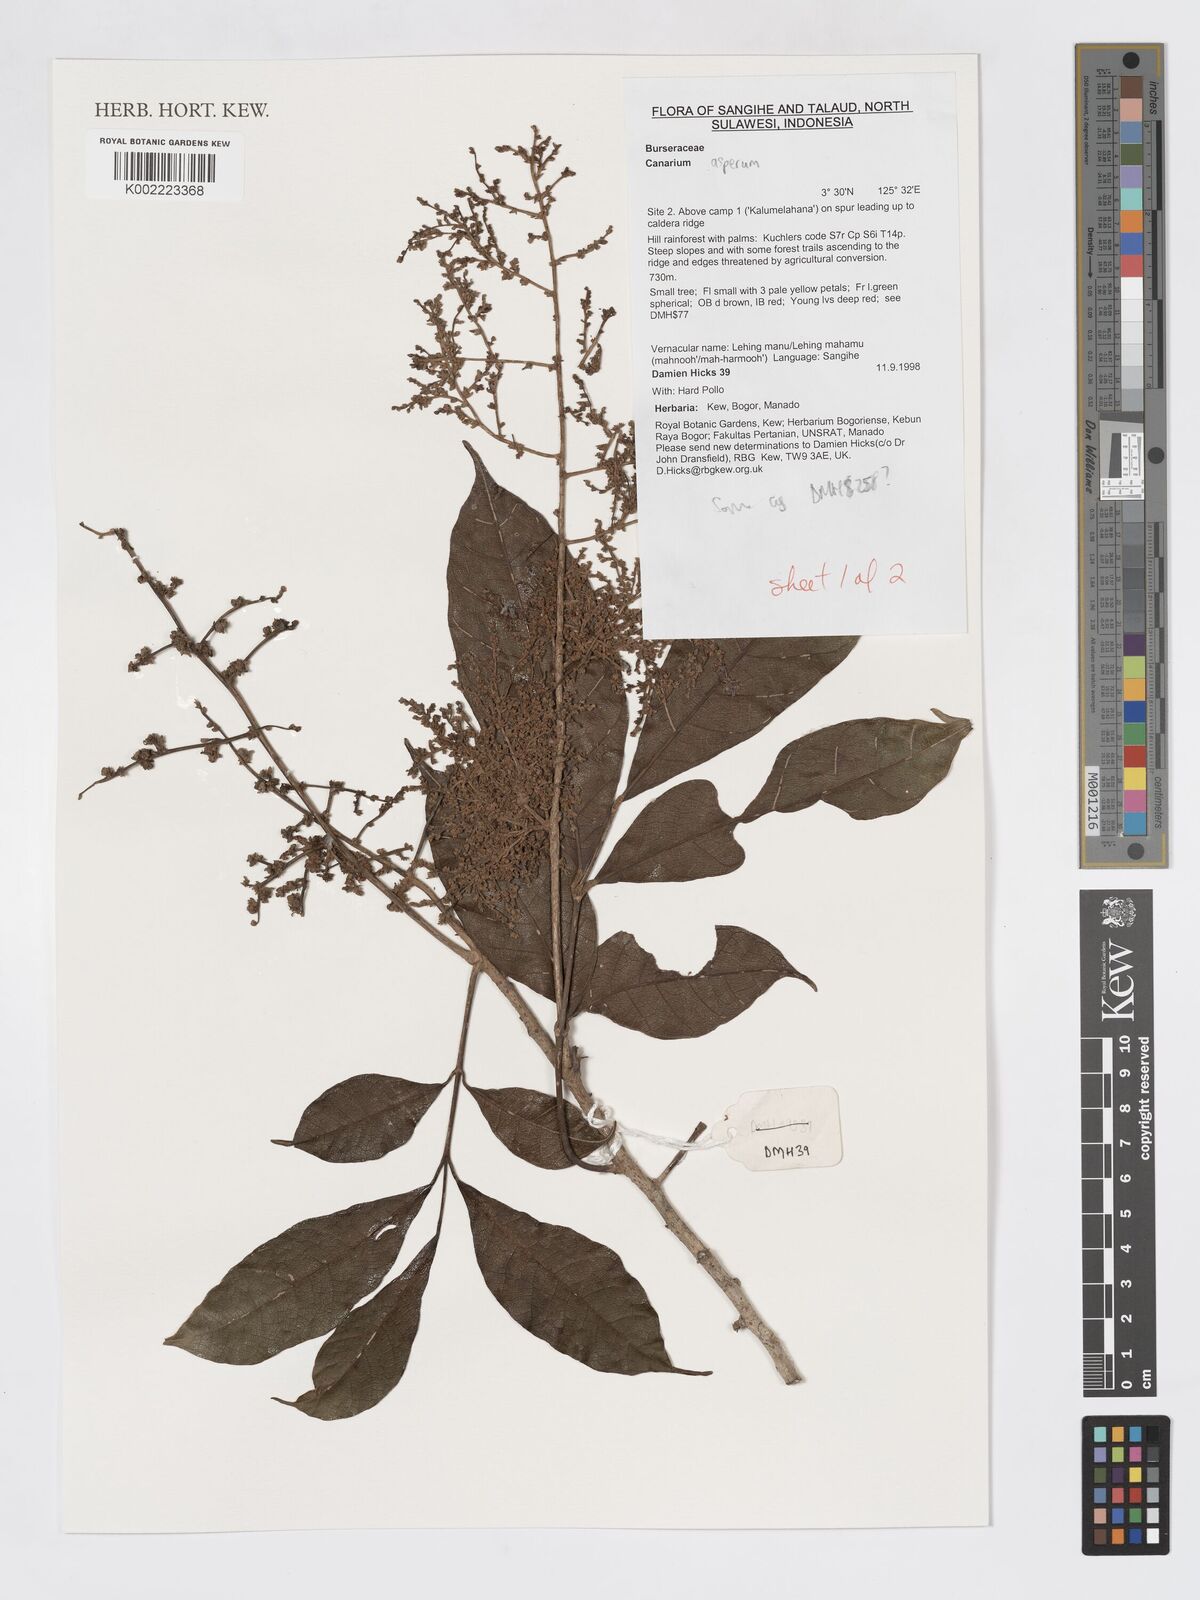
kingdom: Plantae
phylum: Tracheophyta
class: Magnoliopsida
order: Sapindales
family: Burseraceae
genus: Canarium
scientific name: Canarium asperum
